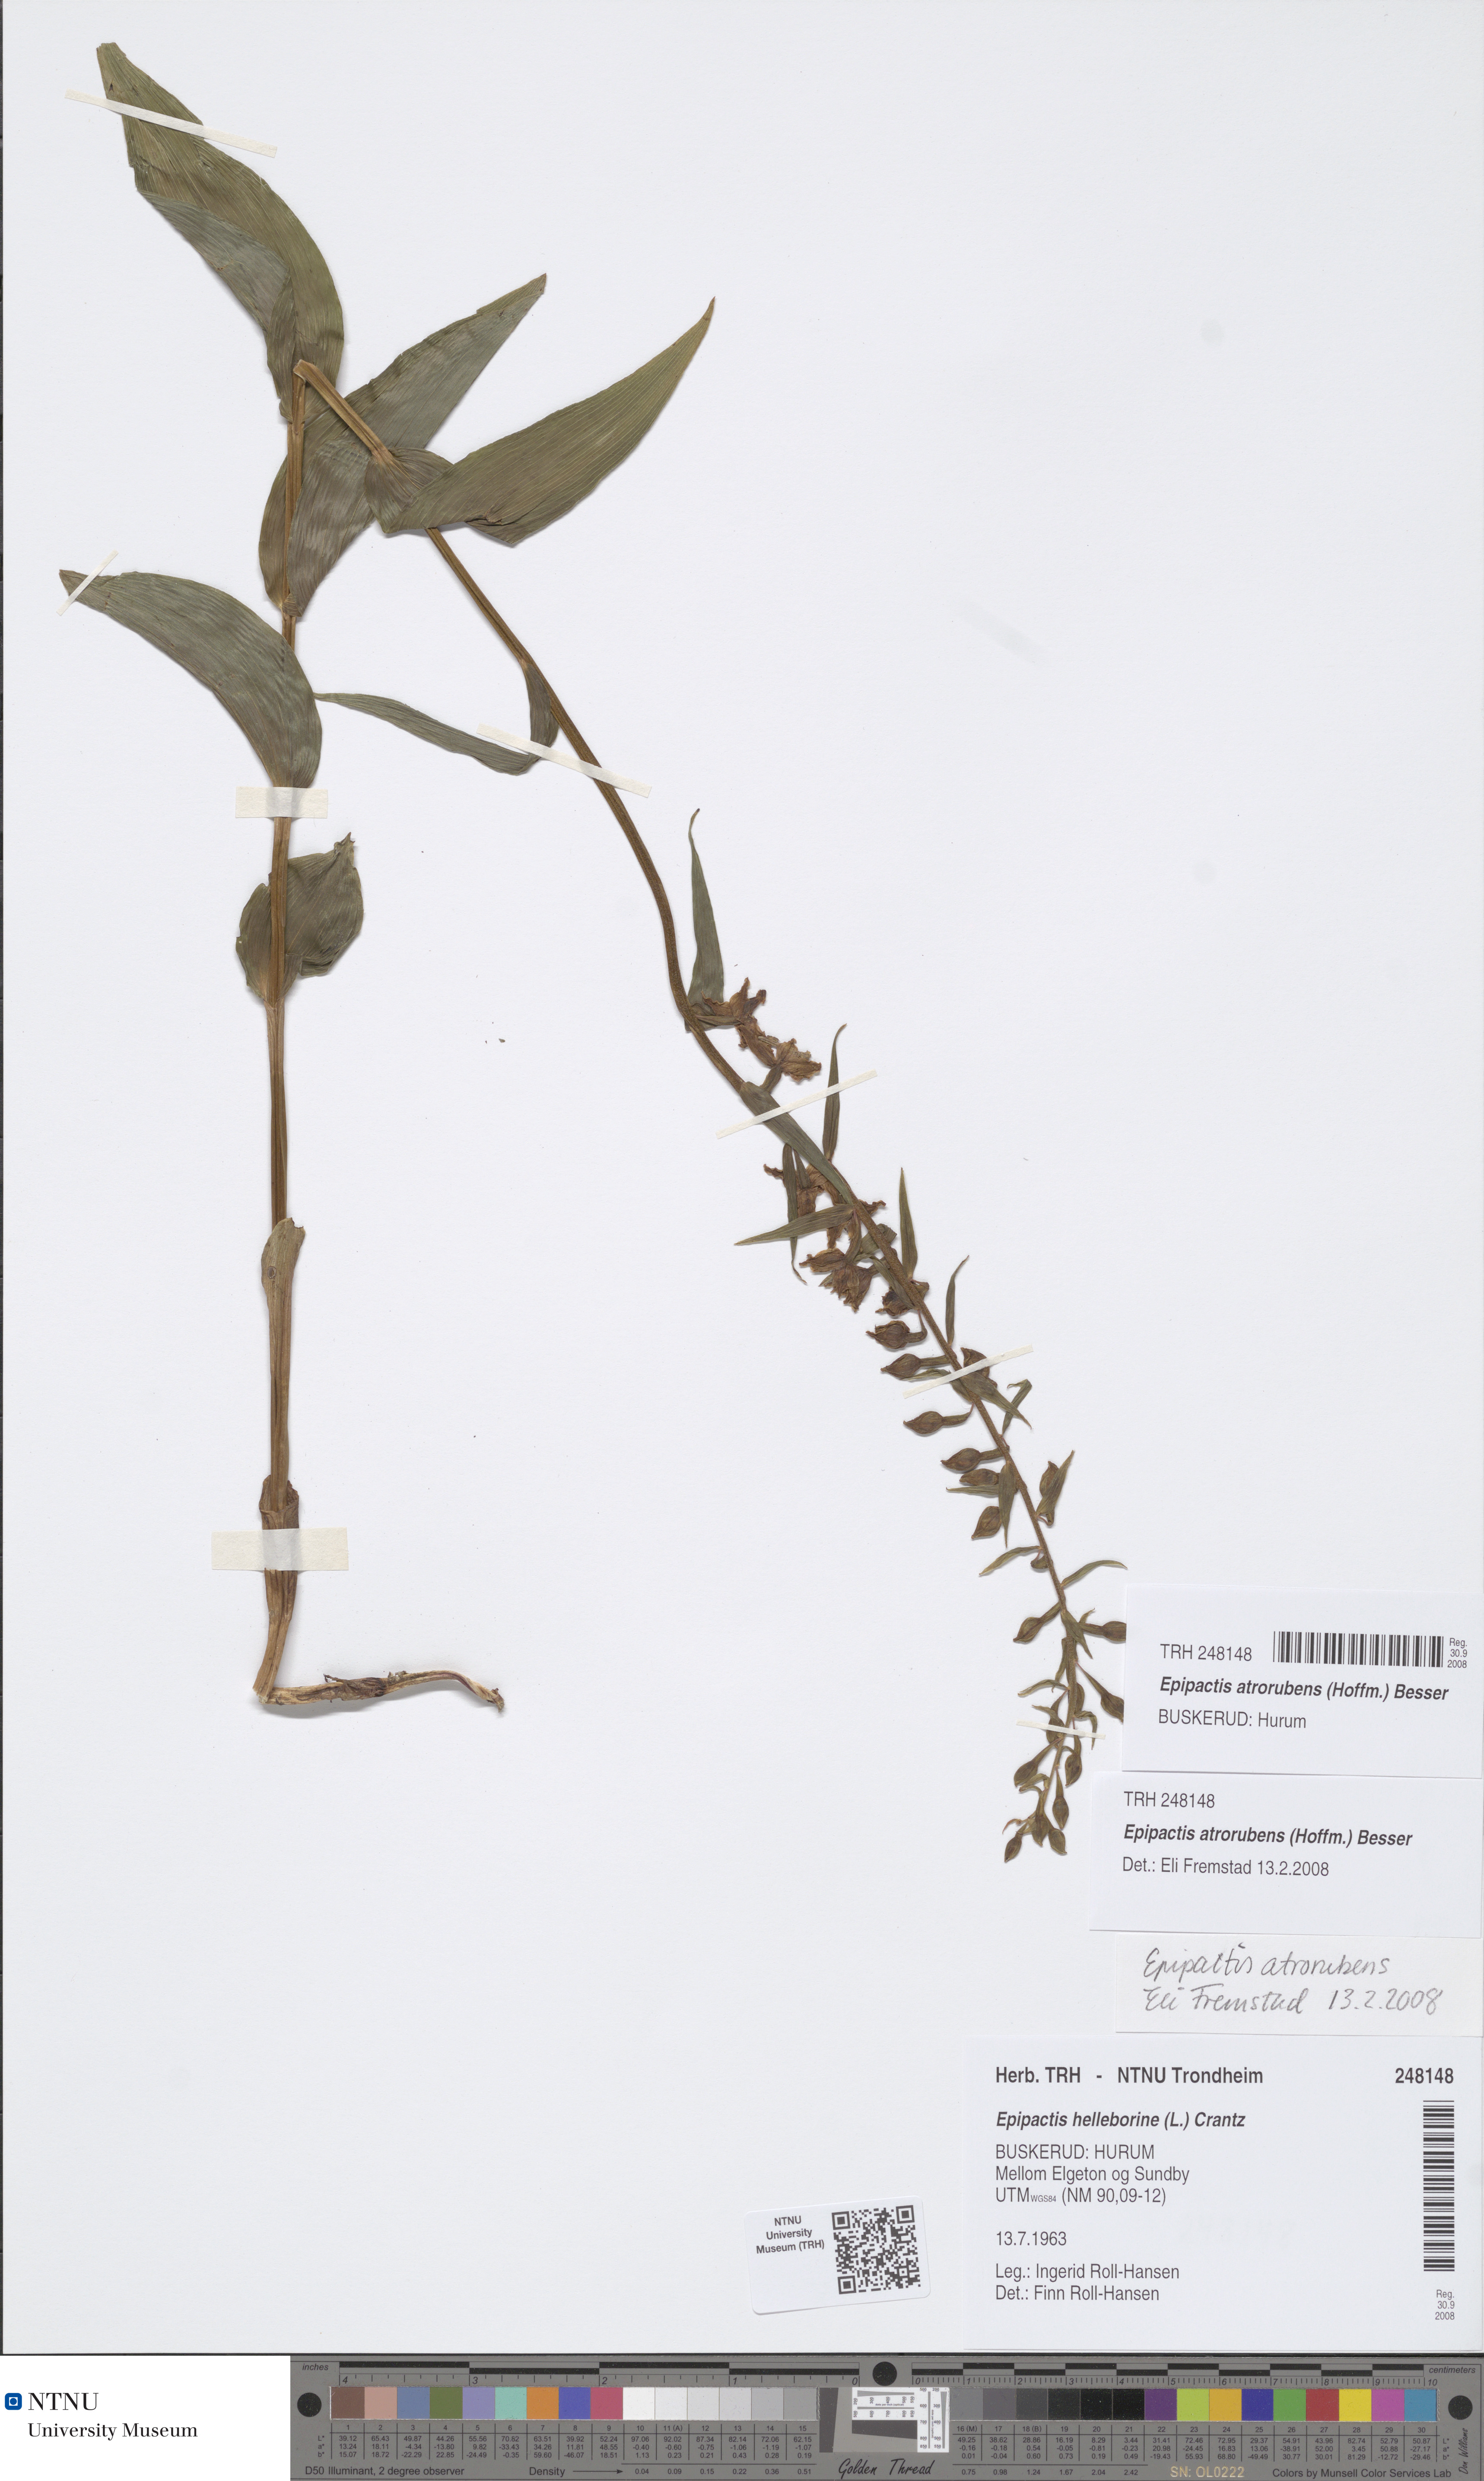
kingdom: Plantae
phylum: Tracheophyta
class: Liliopsida
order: Asparagales
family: Orchidaceae
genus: Epipactis
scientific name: Epipactis atrorubens
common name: Dark-red helleborine
